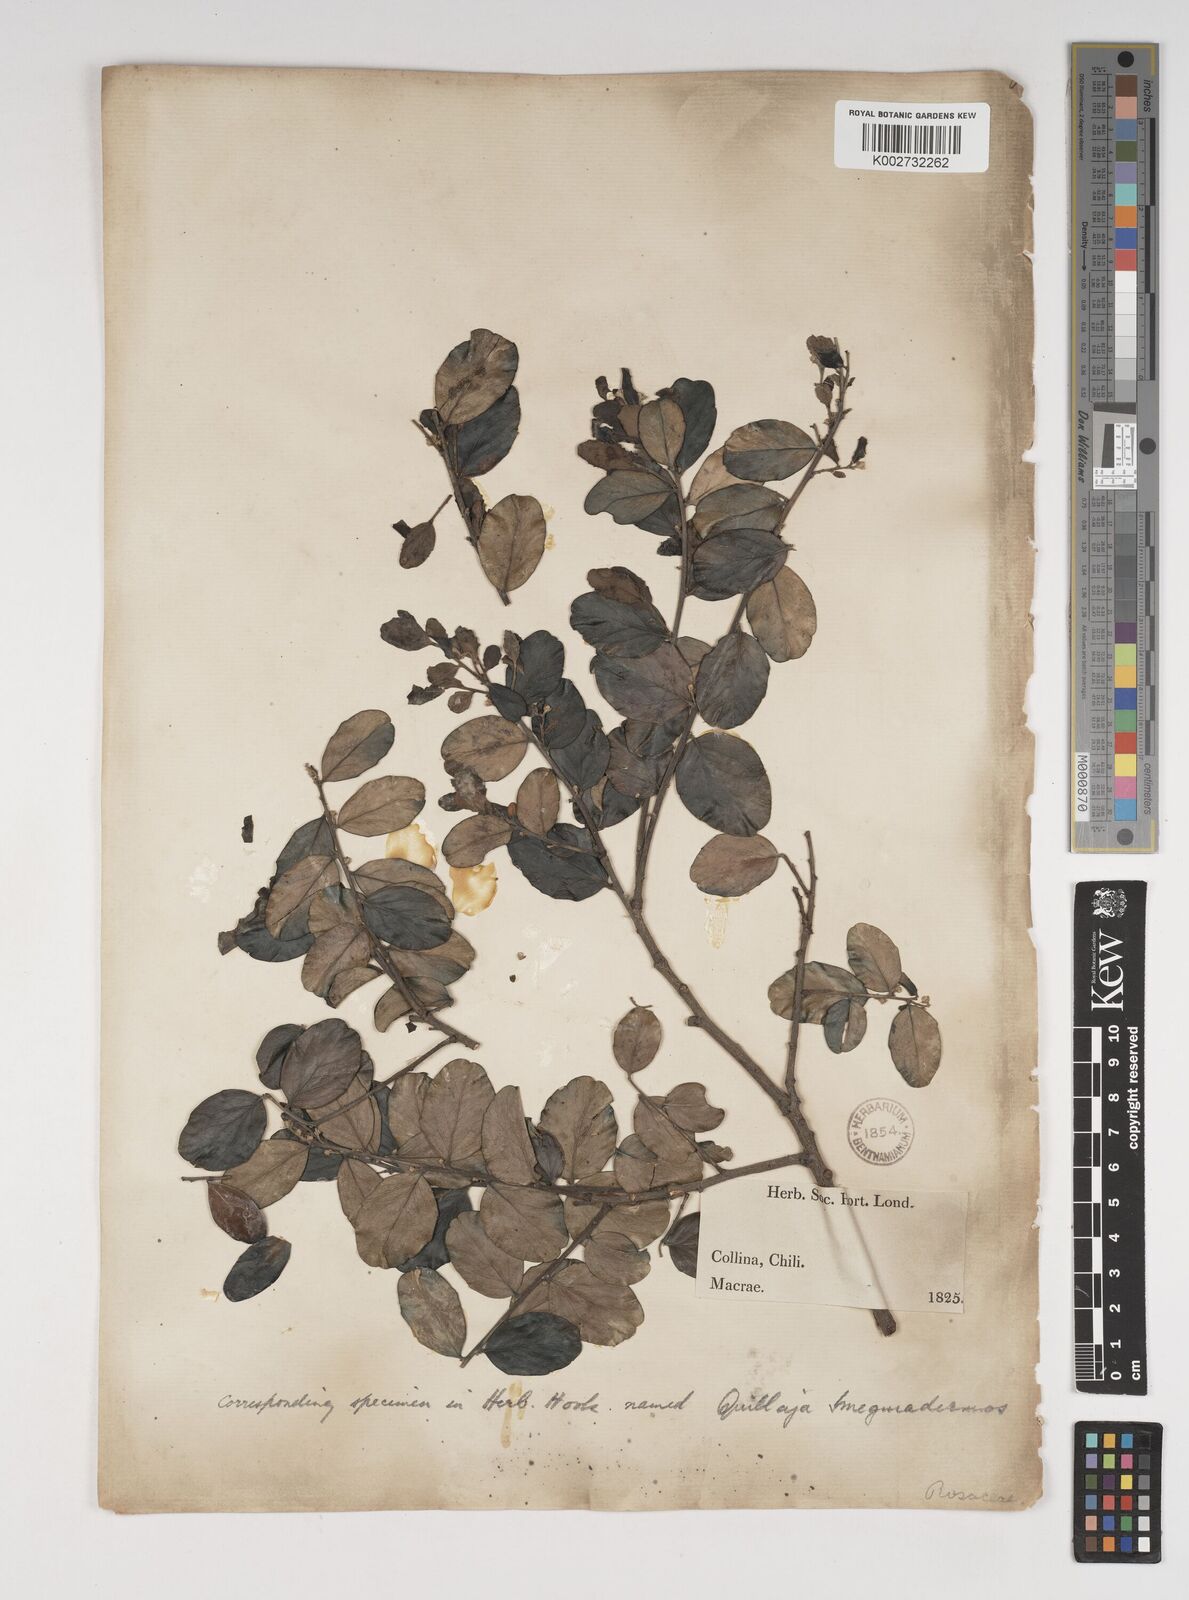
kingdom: Plantae
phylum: Tracheophyta
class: Magnoliopsida
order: Fabales
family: Quillajaceae
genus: Quillaja
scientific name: Quillaja saponaria
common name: Murillo's-bark
